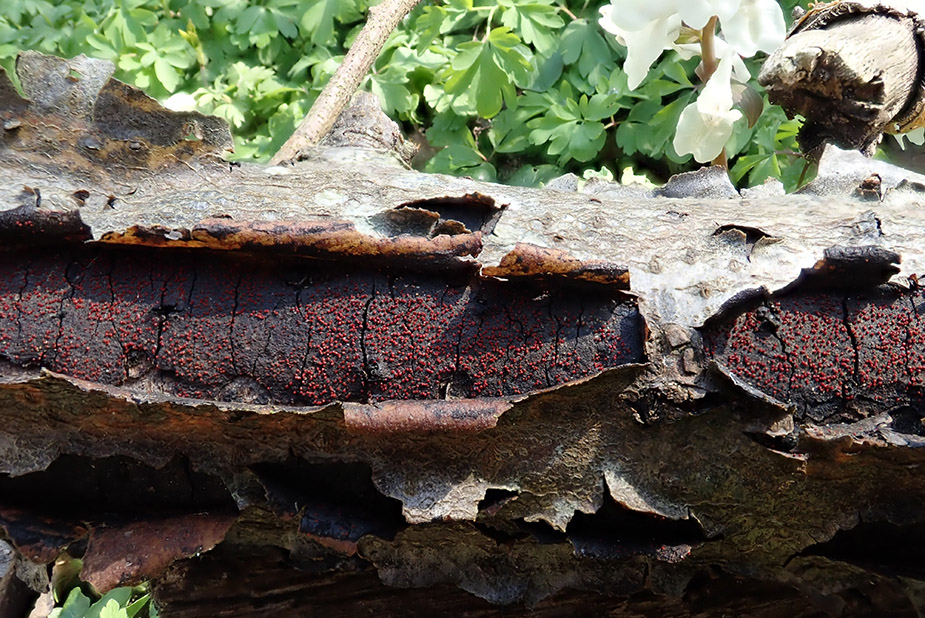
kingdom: Fungi
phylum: Ascomycota
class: Sordariomycetes
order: Hypocreales
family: Nectriaceae
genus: Dialonectria
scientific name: Dialonectria episphaeria
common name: kulskorpe-cinnobersvamp
